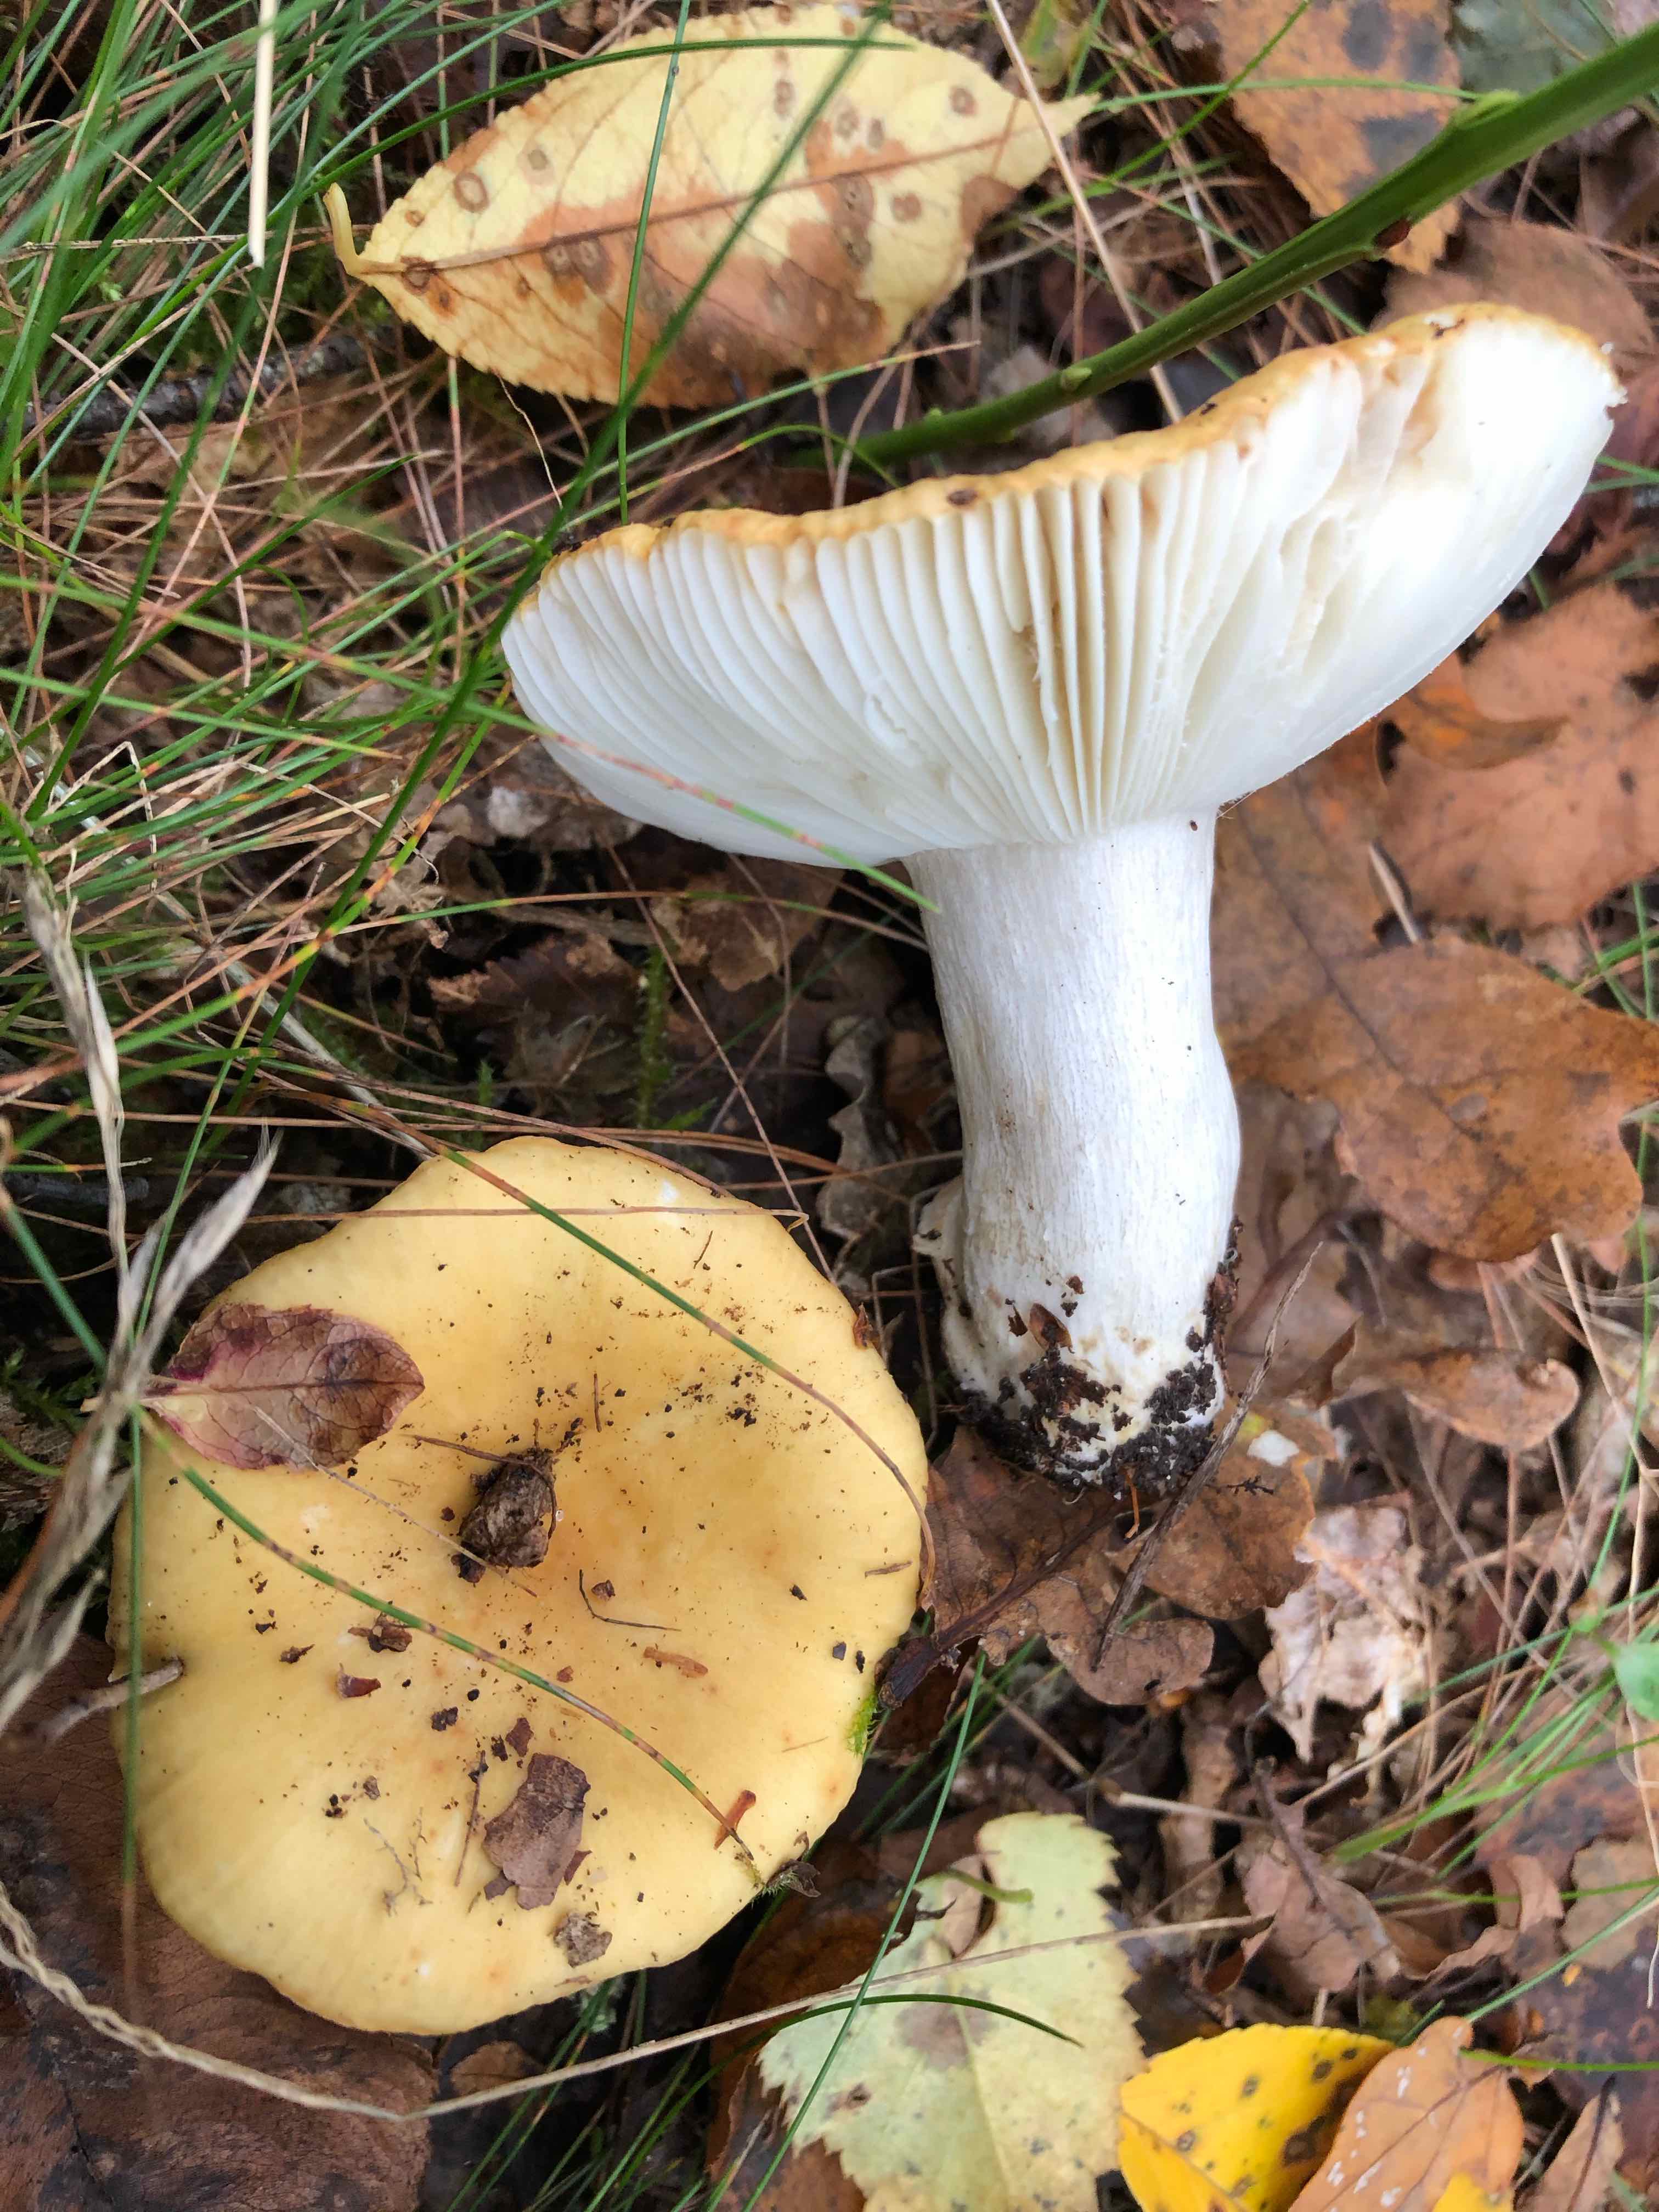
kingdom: Fungi
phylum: Basidiomycota
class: Agaricomycetes
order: Russulales
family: Russulaceae
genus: Russula
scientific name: Russula ochroleuca
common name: okkergul skørhat
